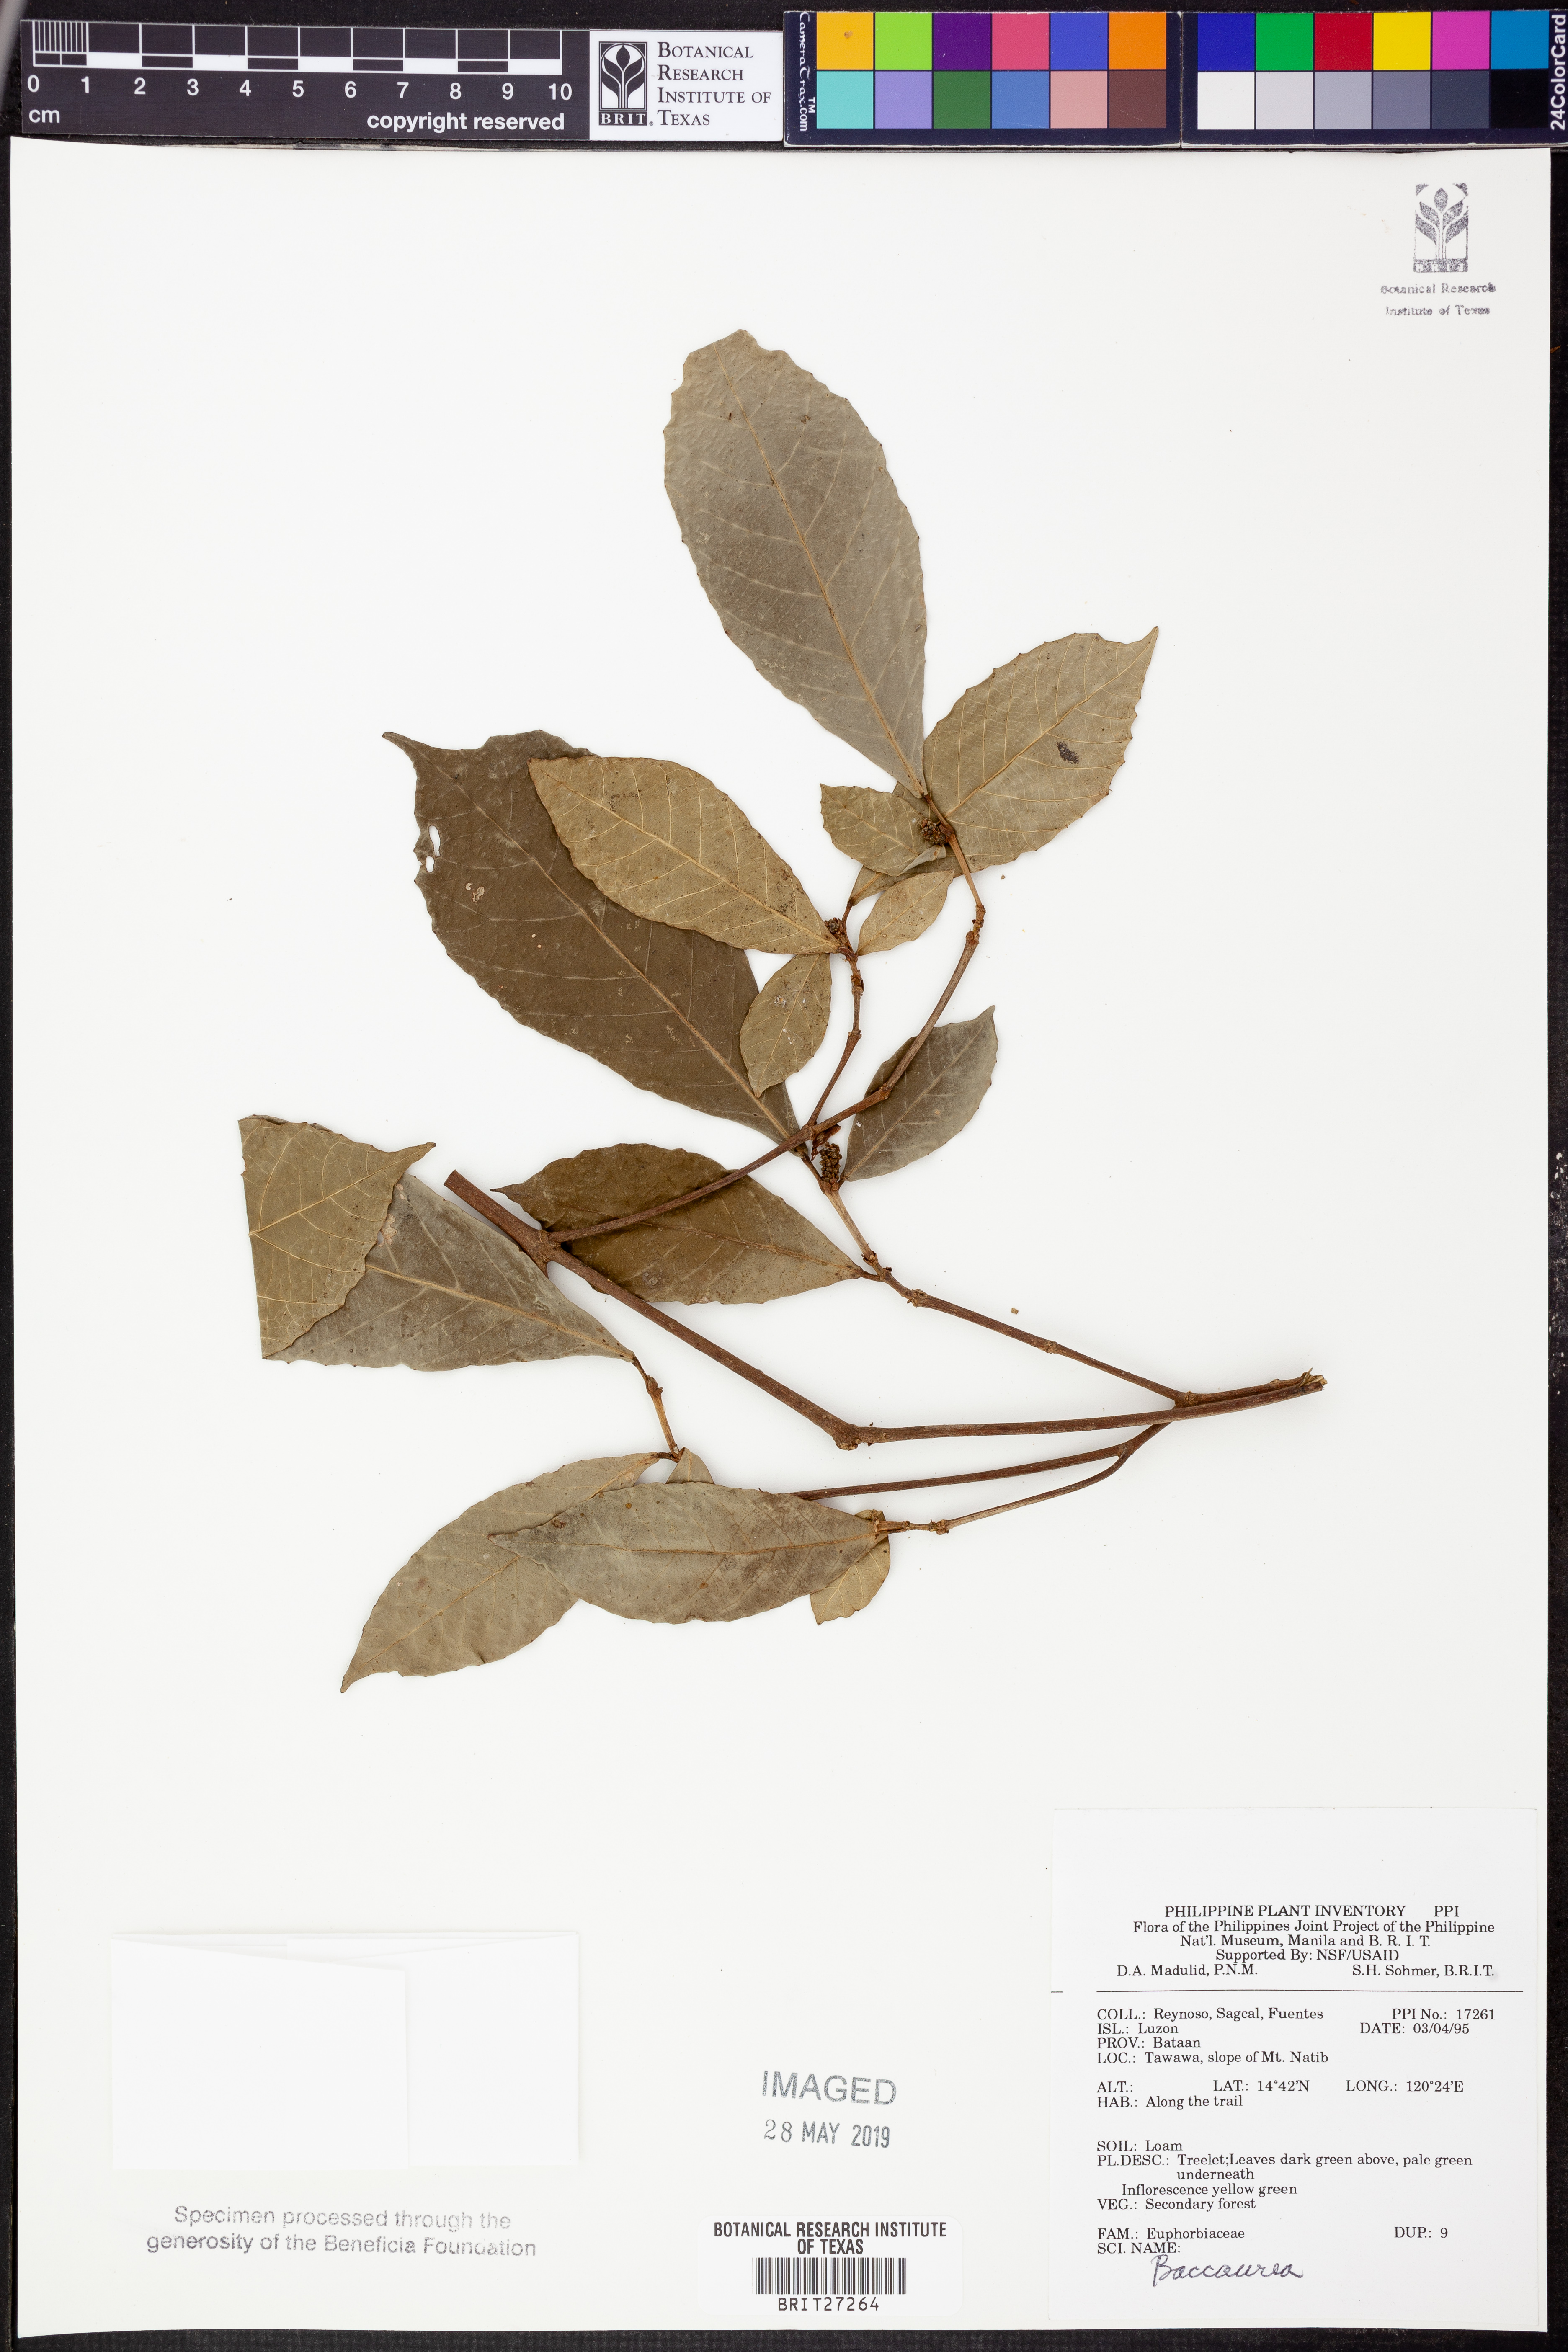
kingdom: Plantae
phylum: Tracheophyta
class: Magnoliopsida
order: Malpighiales
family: Phyllanthaceae
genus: Baccaurea
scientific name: Baccaurea
